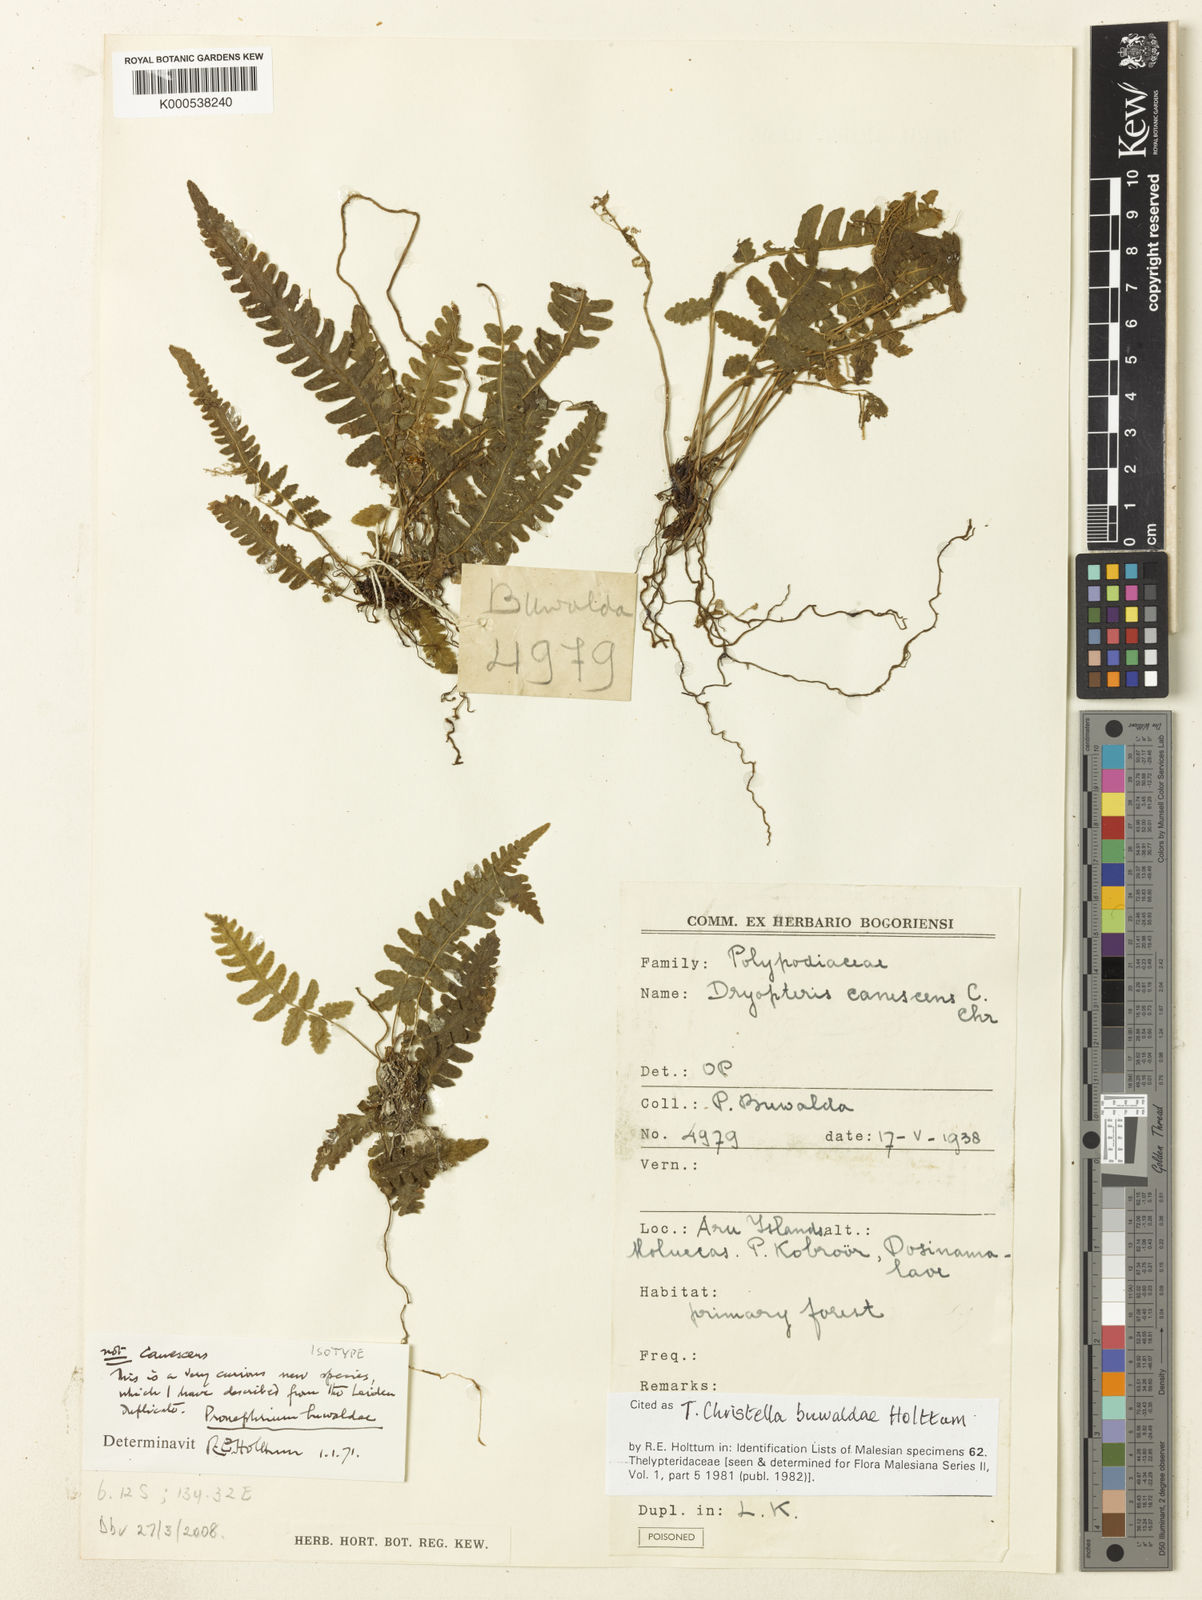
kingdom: Plantae
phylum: Tracheophyta
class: Polypodiopsida
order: Polypodiales
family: Thelypteridaceae
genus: Christella
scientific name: Christella buwaldae
